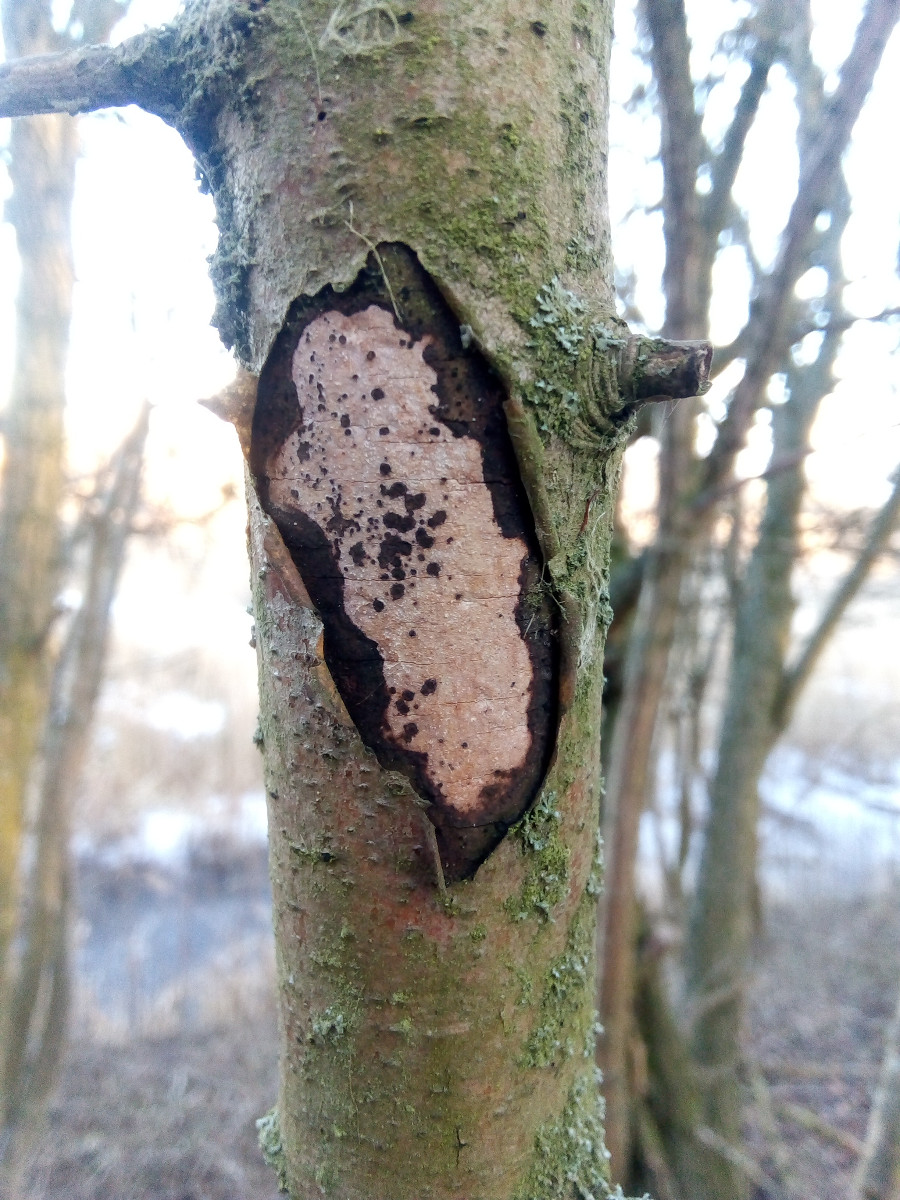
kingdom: Fungi
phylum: Basidiomycota
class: Agaricomycetes
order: Corticiales
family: Vuilleminiaceae
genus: Vuilleminia
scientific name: Vuilleminia cystidiata
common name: tjørne-barksprænger
